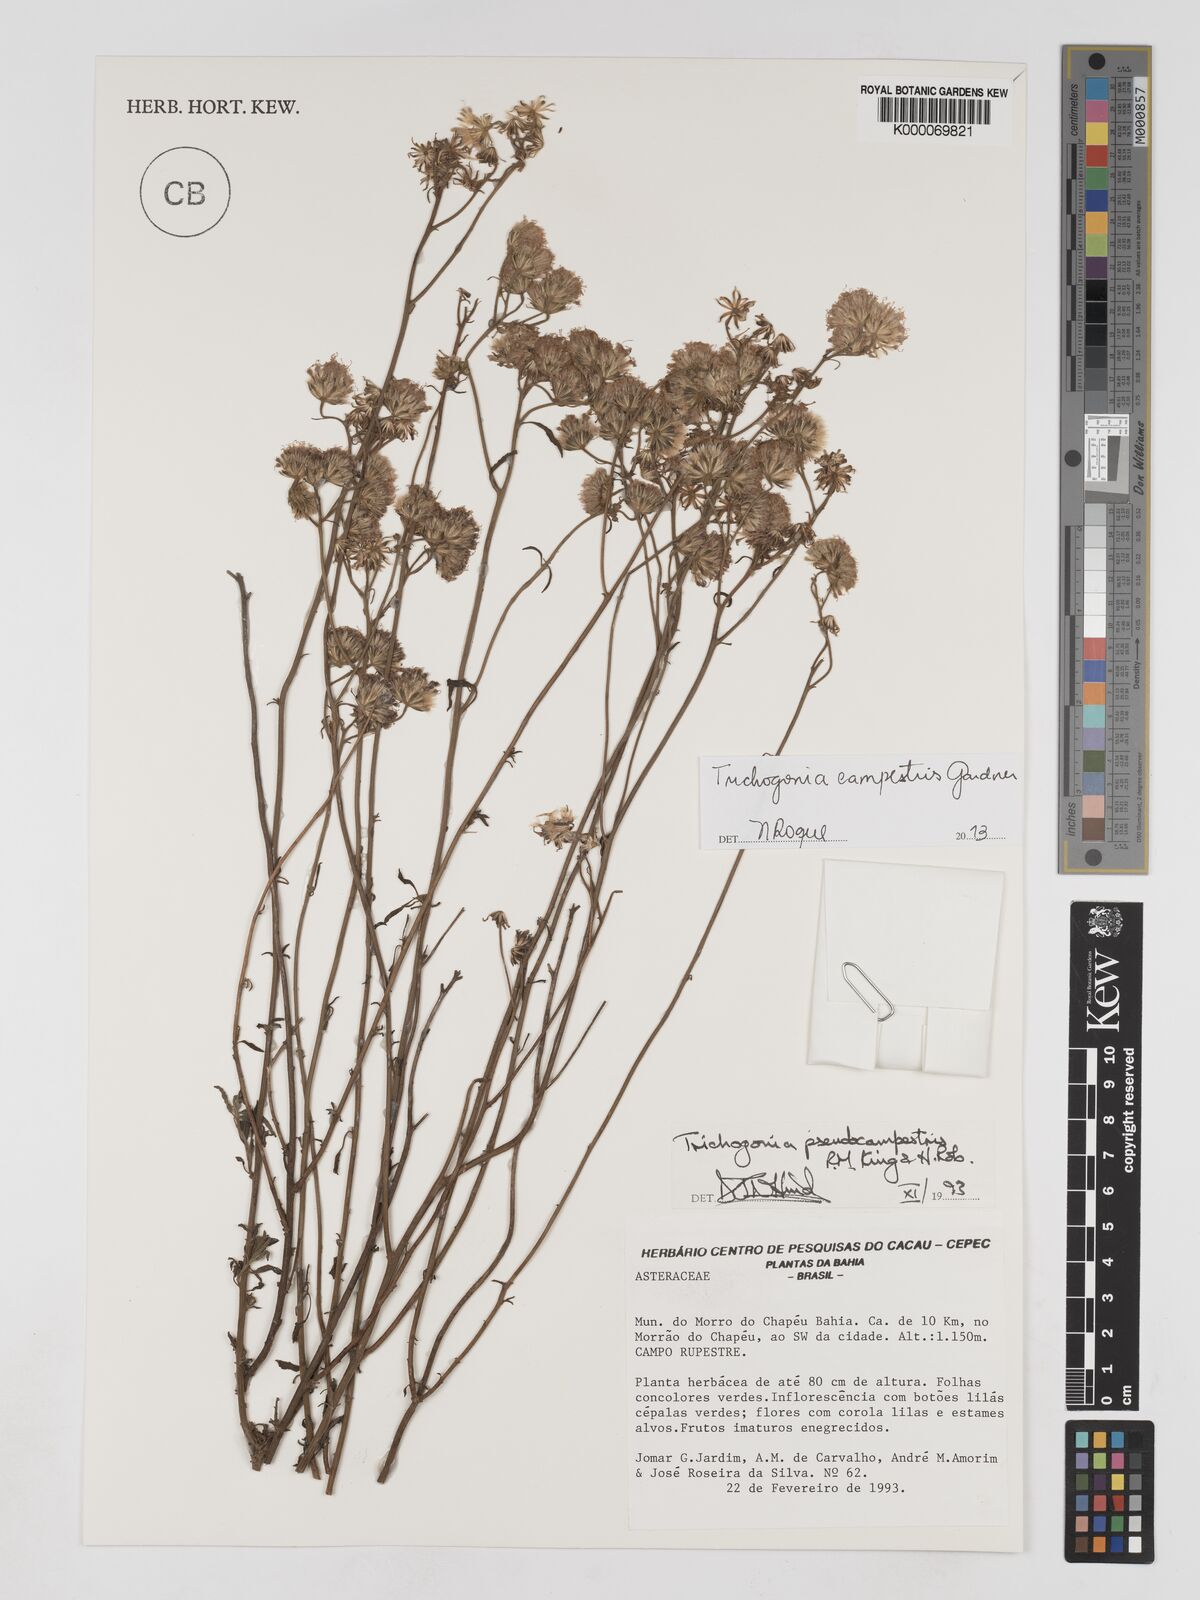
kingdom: Plantae
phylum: Tracheophyta
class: Magnoliopsida
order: Asterales
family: Asteraceae
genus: Trichogonia
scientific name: Trichogonia campestris
